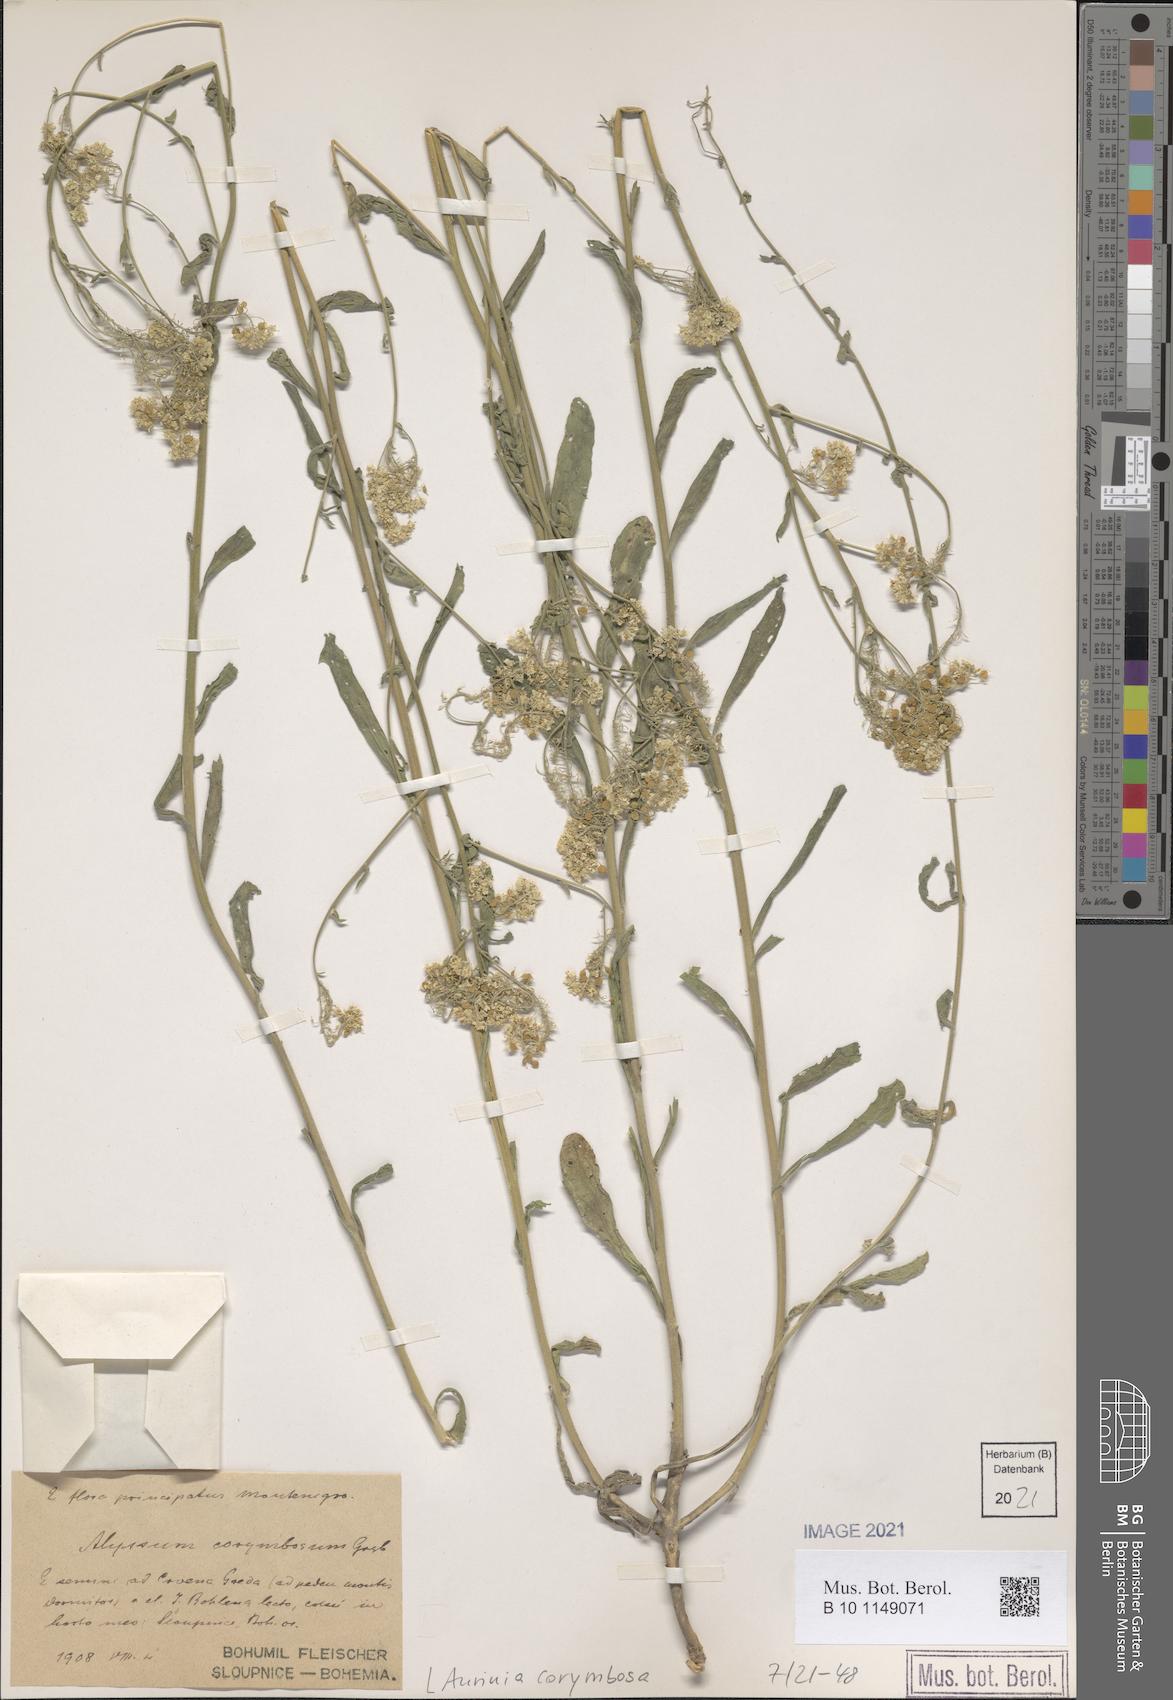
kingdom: Plantae
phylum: Tracheophyta
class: Magnoliopsida
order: Brassicales
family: Brassicaceae
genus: Aurinia
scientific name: Aurinia corymbosa
